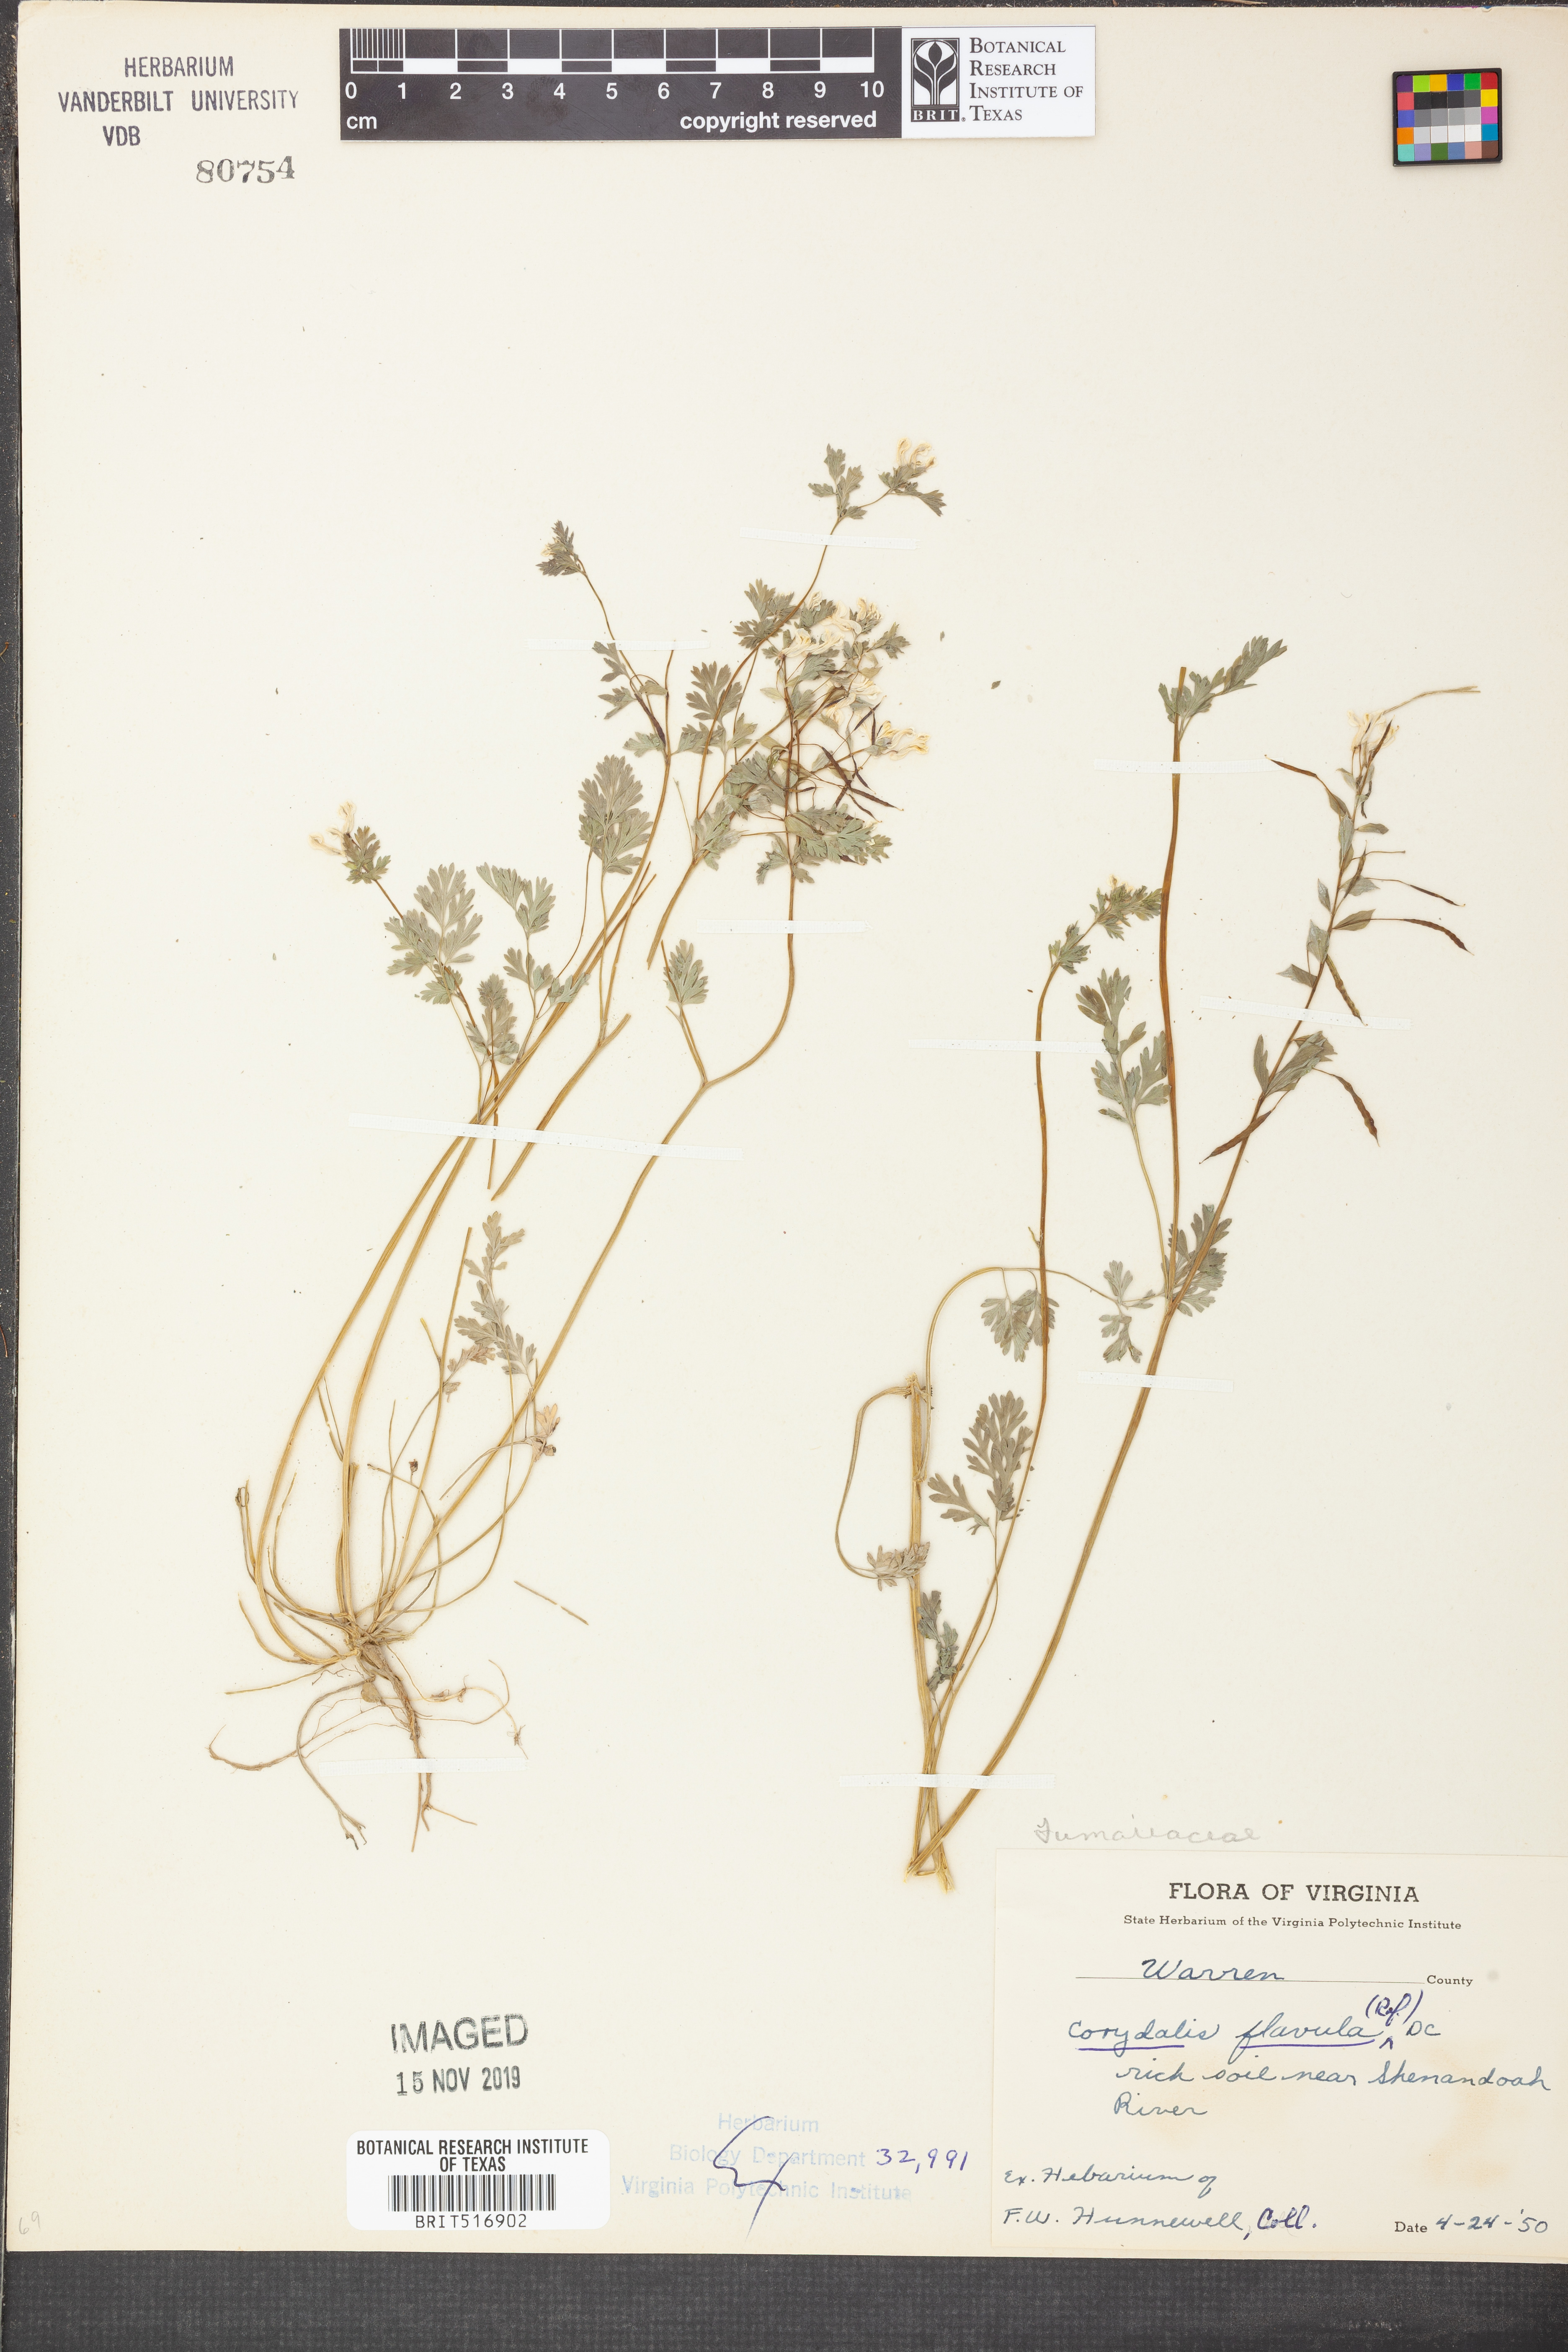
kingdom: Plantae
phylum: Tracheophyta
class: Magnoliopsida
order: Ranunculales
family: Papaveraceae
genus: Corydalis
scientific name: Corydalis flavula
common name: Yellow corydalis
